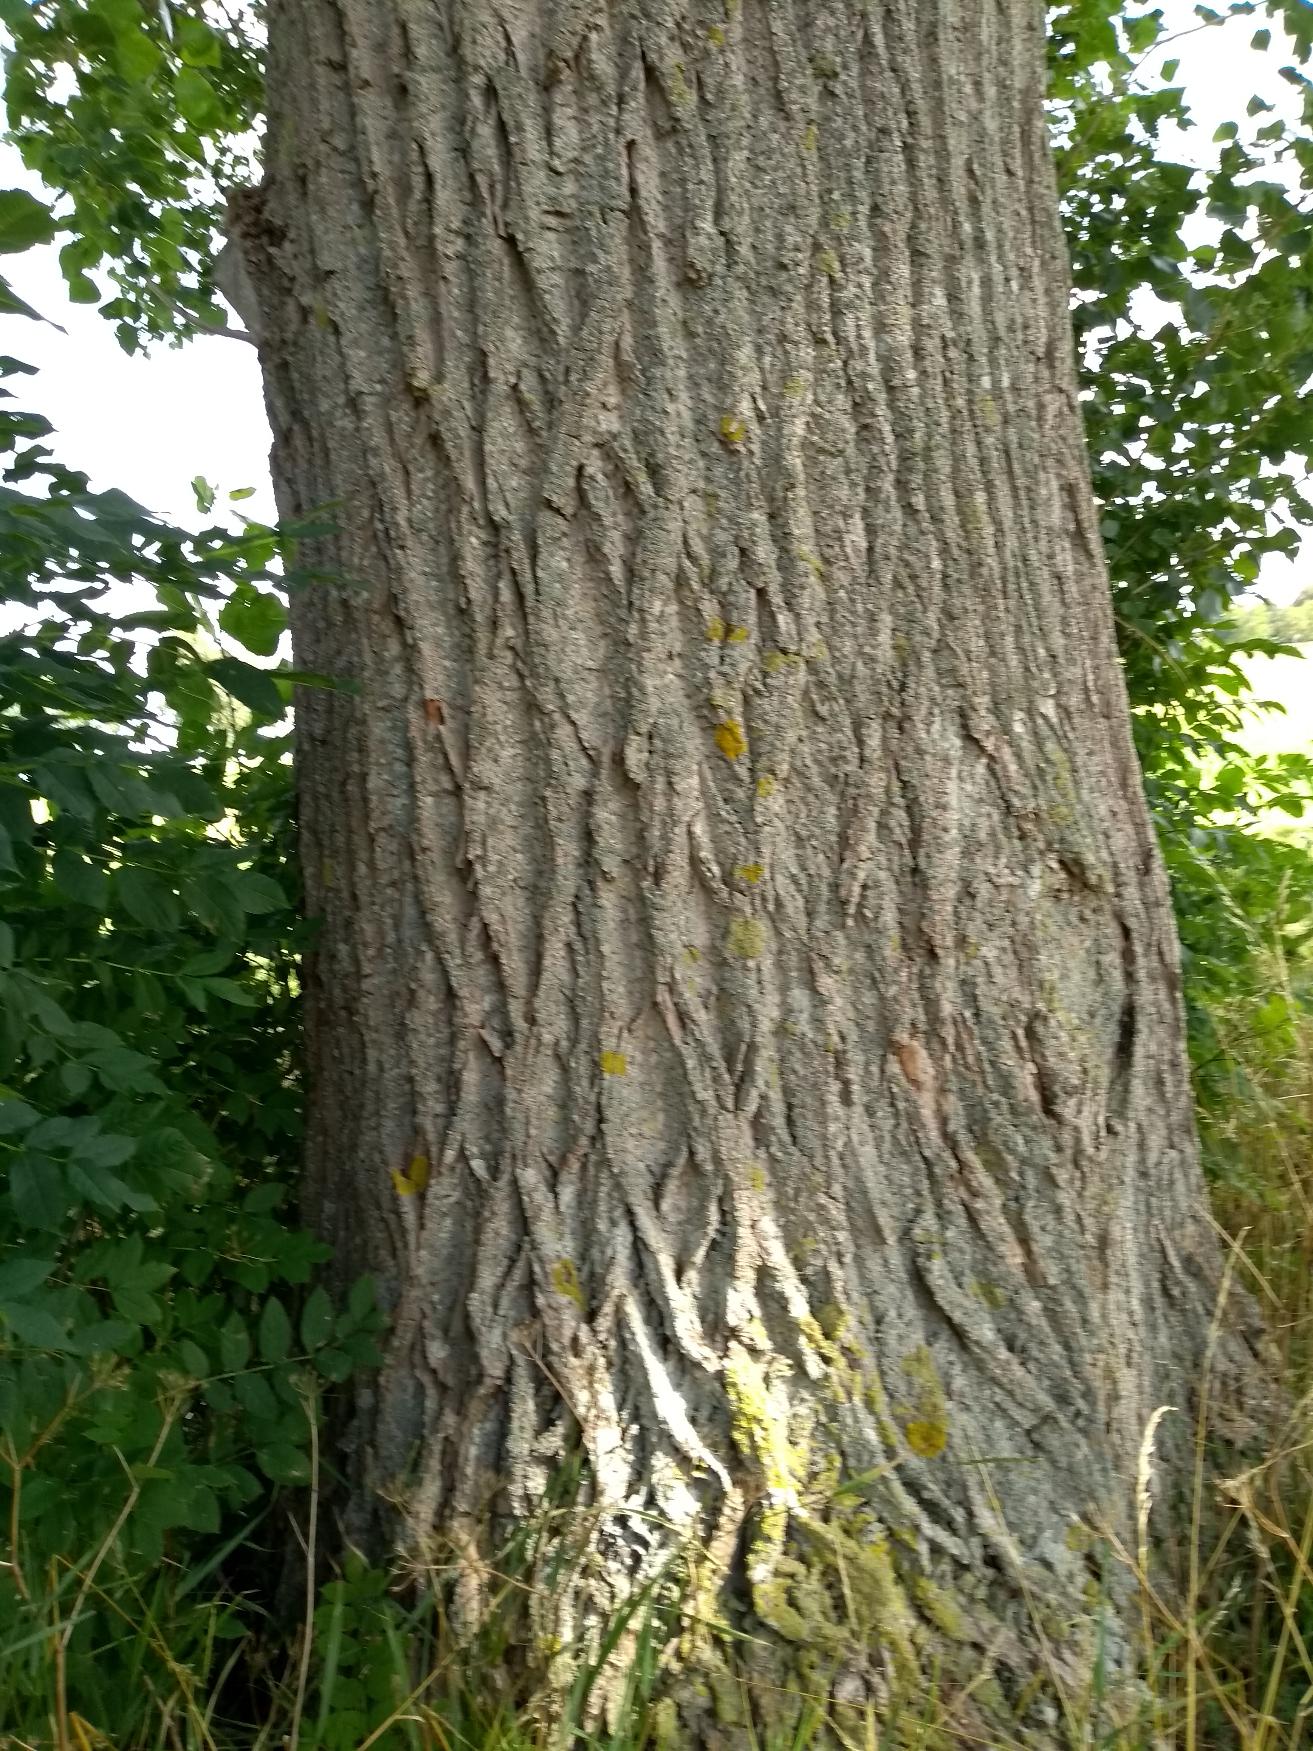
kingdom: Plantae
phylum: Tracheophyta
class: Magnoliopsida
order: Malpighiales
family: Salicaceae
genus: Populus
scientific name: Populus
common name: Poppelslægten
